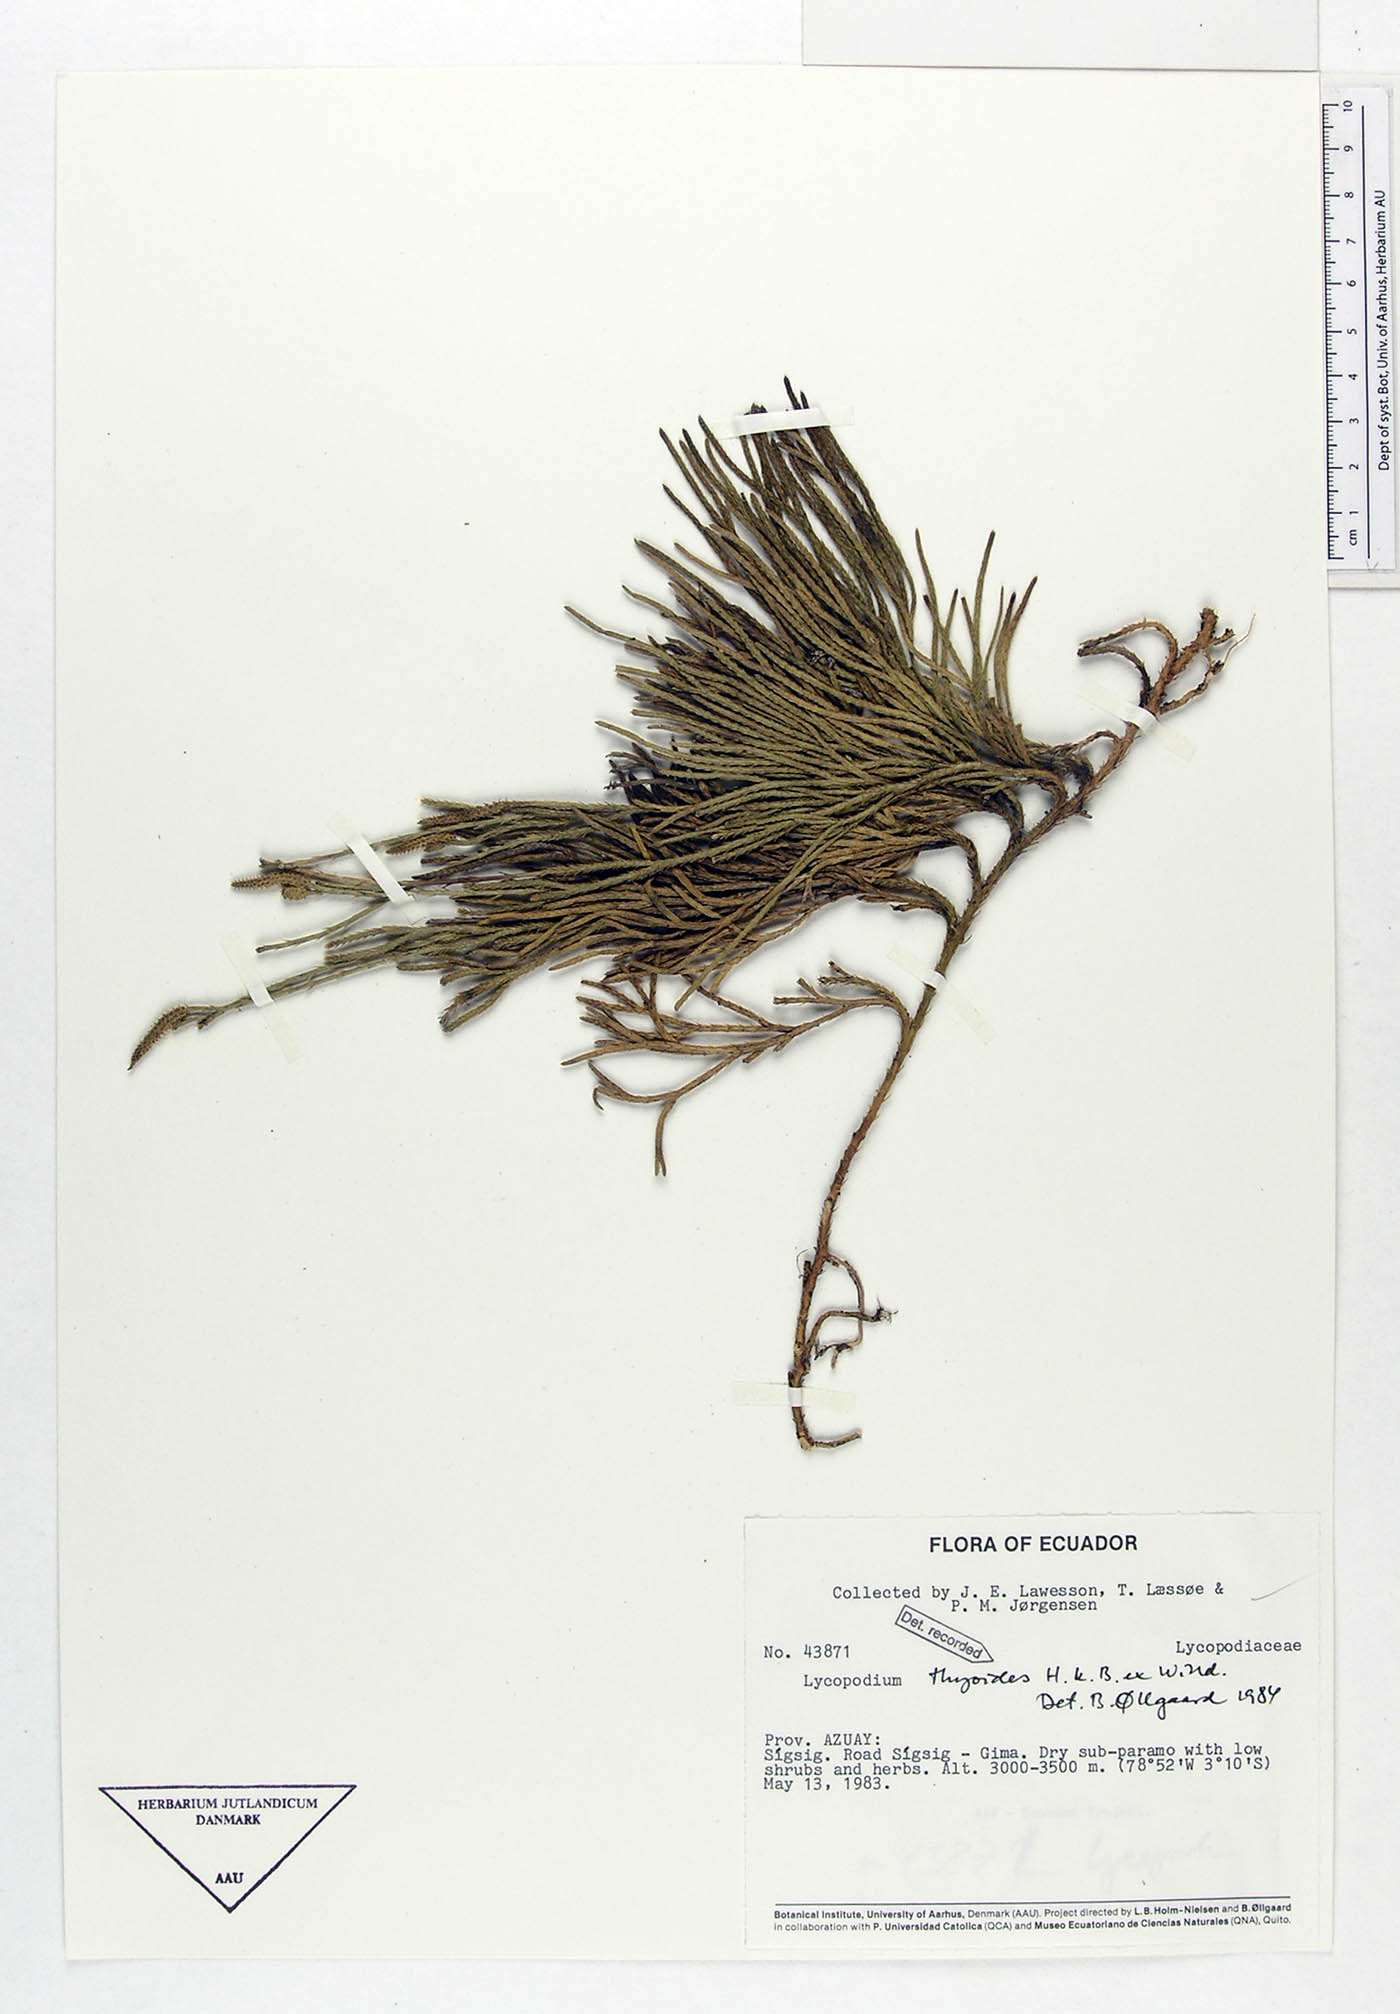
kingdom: Plantae
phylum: Tracheophyta
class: Lycopodiopsida
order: Lycopodiales
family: Lycopodiaceae
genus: Diphasiastrum
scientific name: Diphasiastrum thyoides
